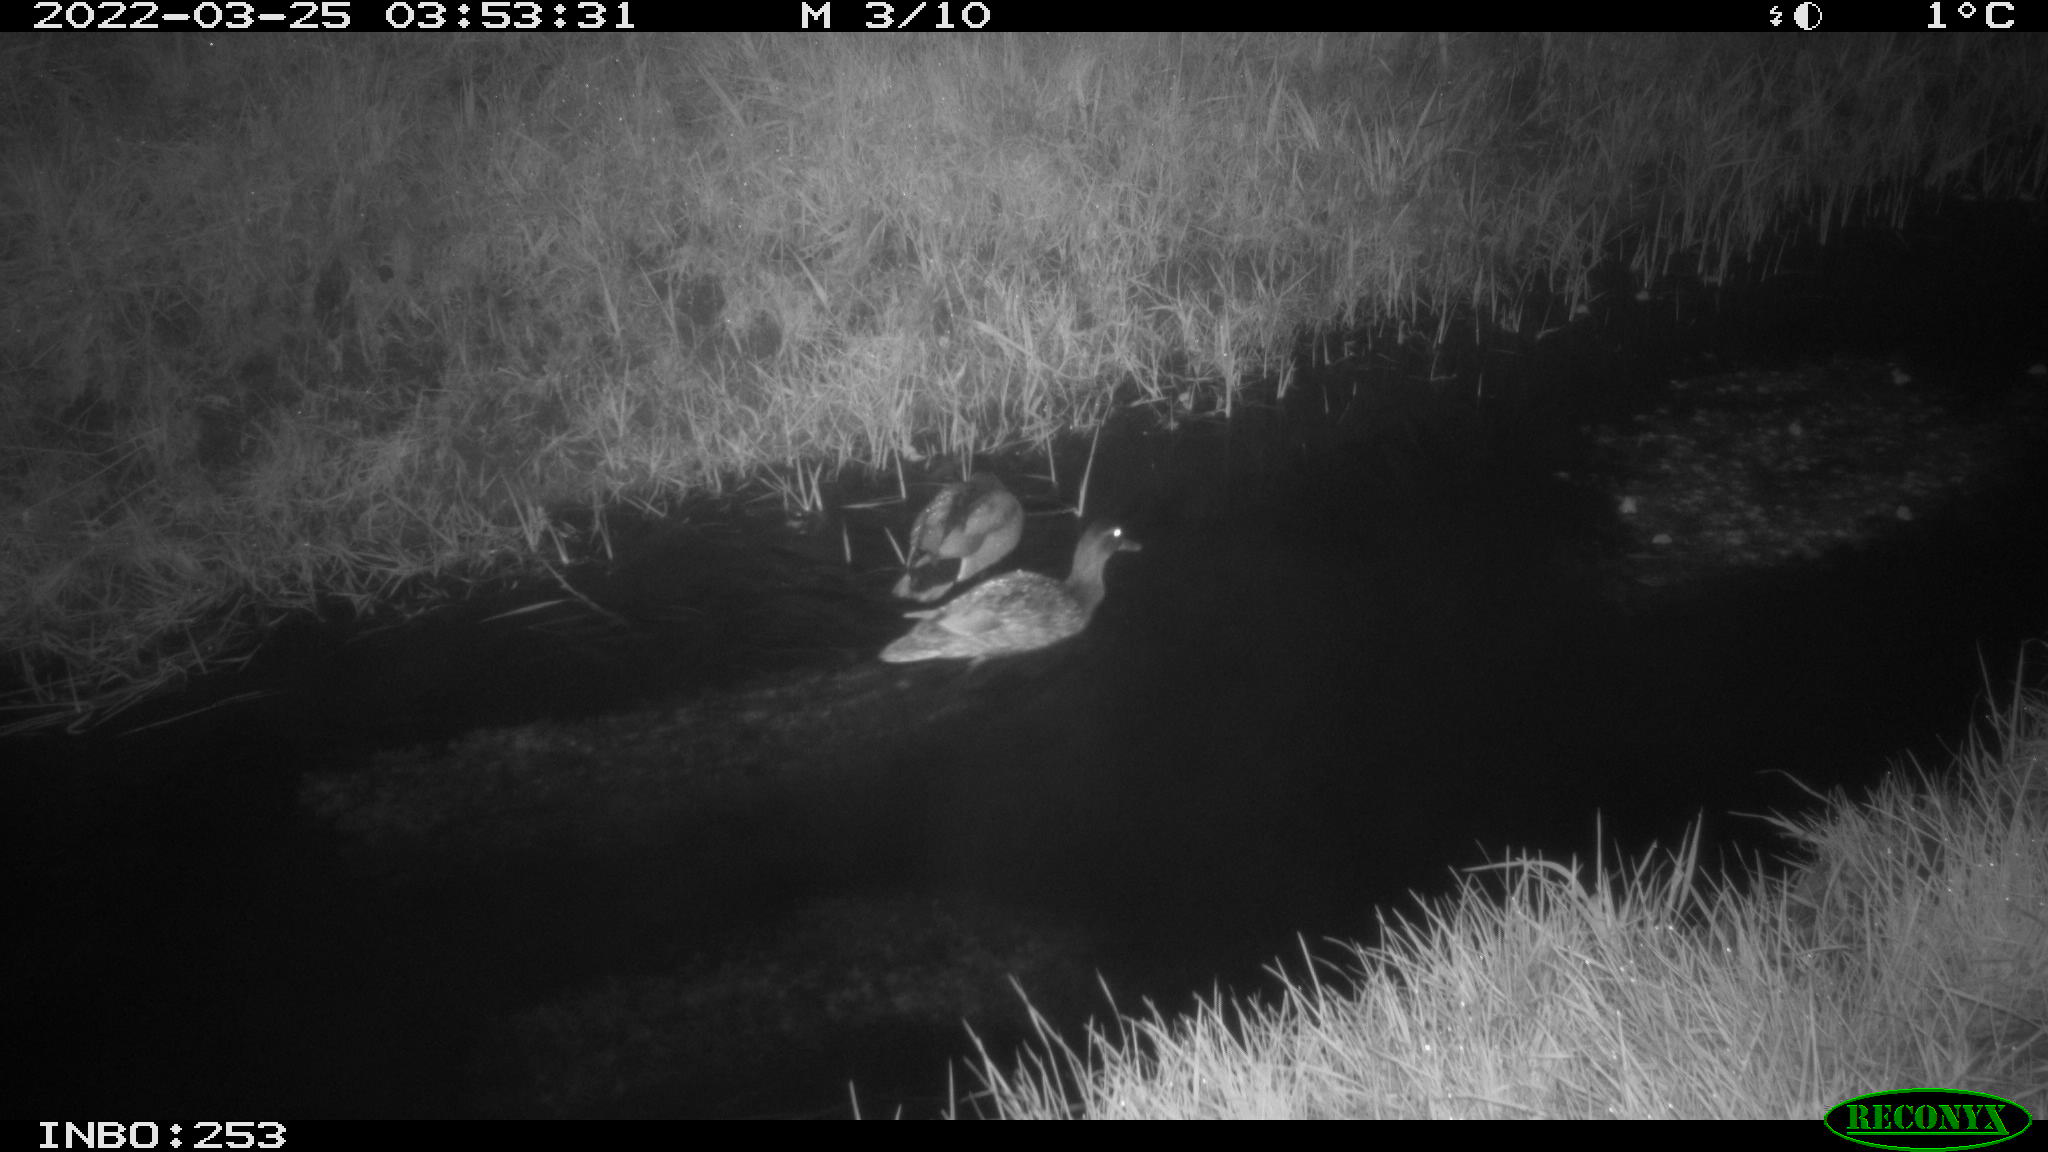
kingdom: Animalia
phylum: Chordata
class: Aves
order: Anseriformes
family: Anatidae
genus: Anas
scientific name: Anas platyrhynchos
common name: Mallard
